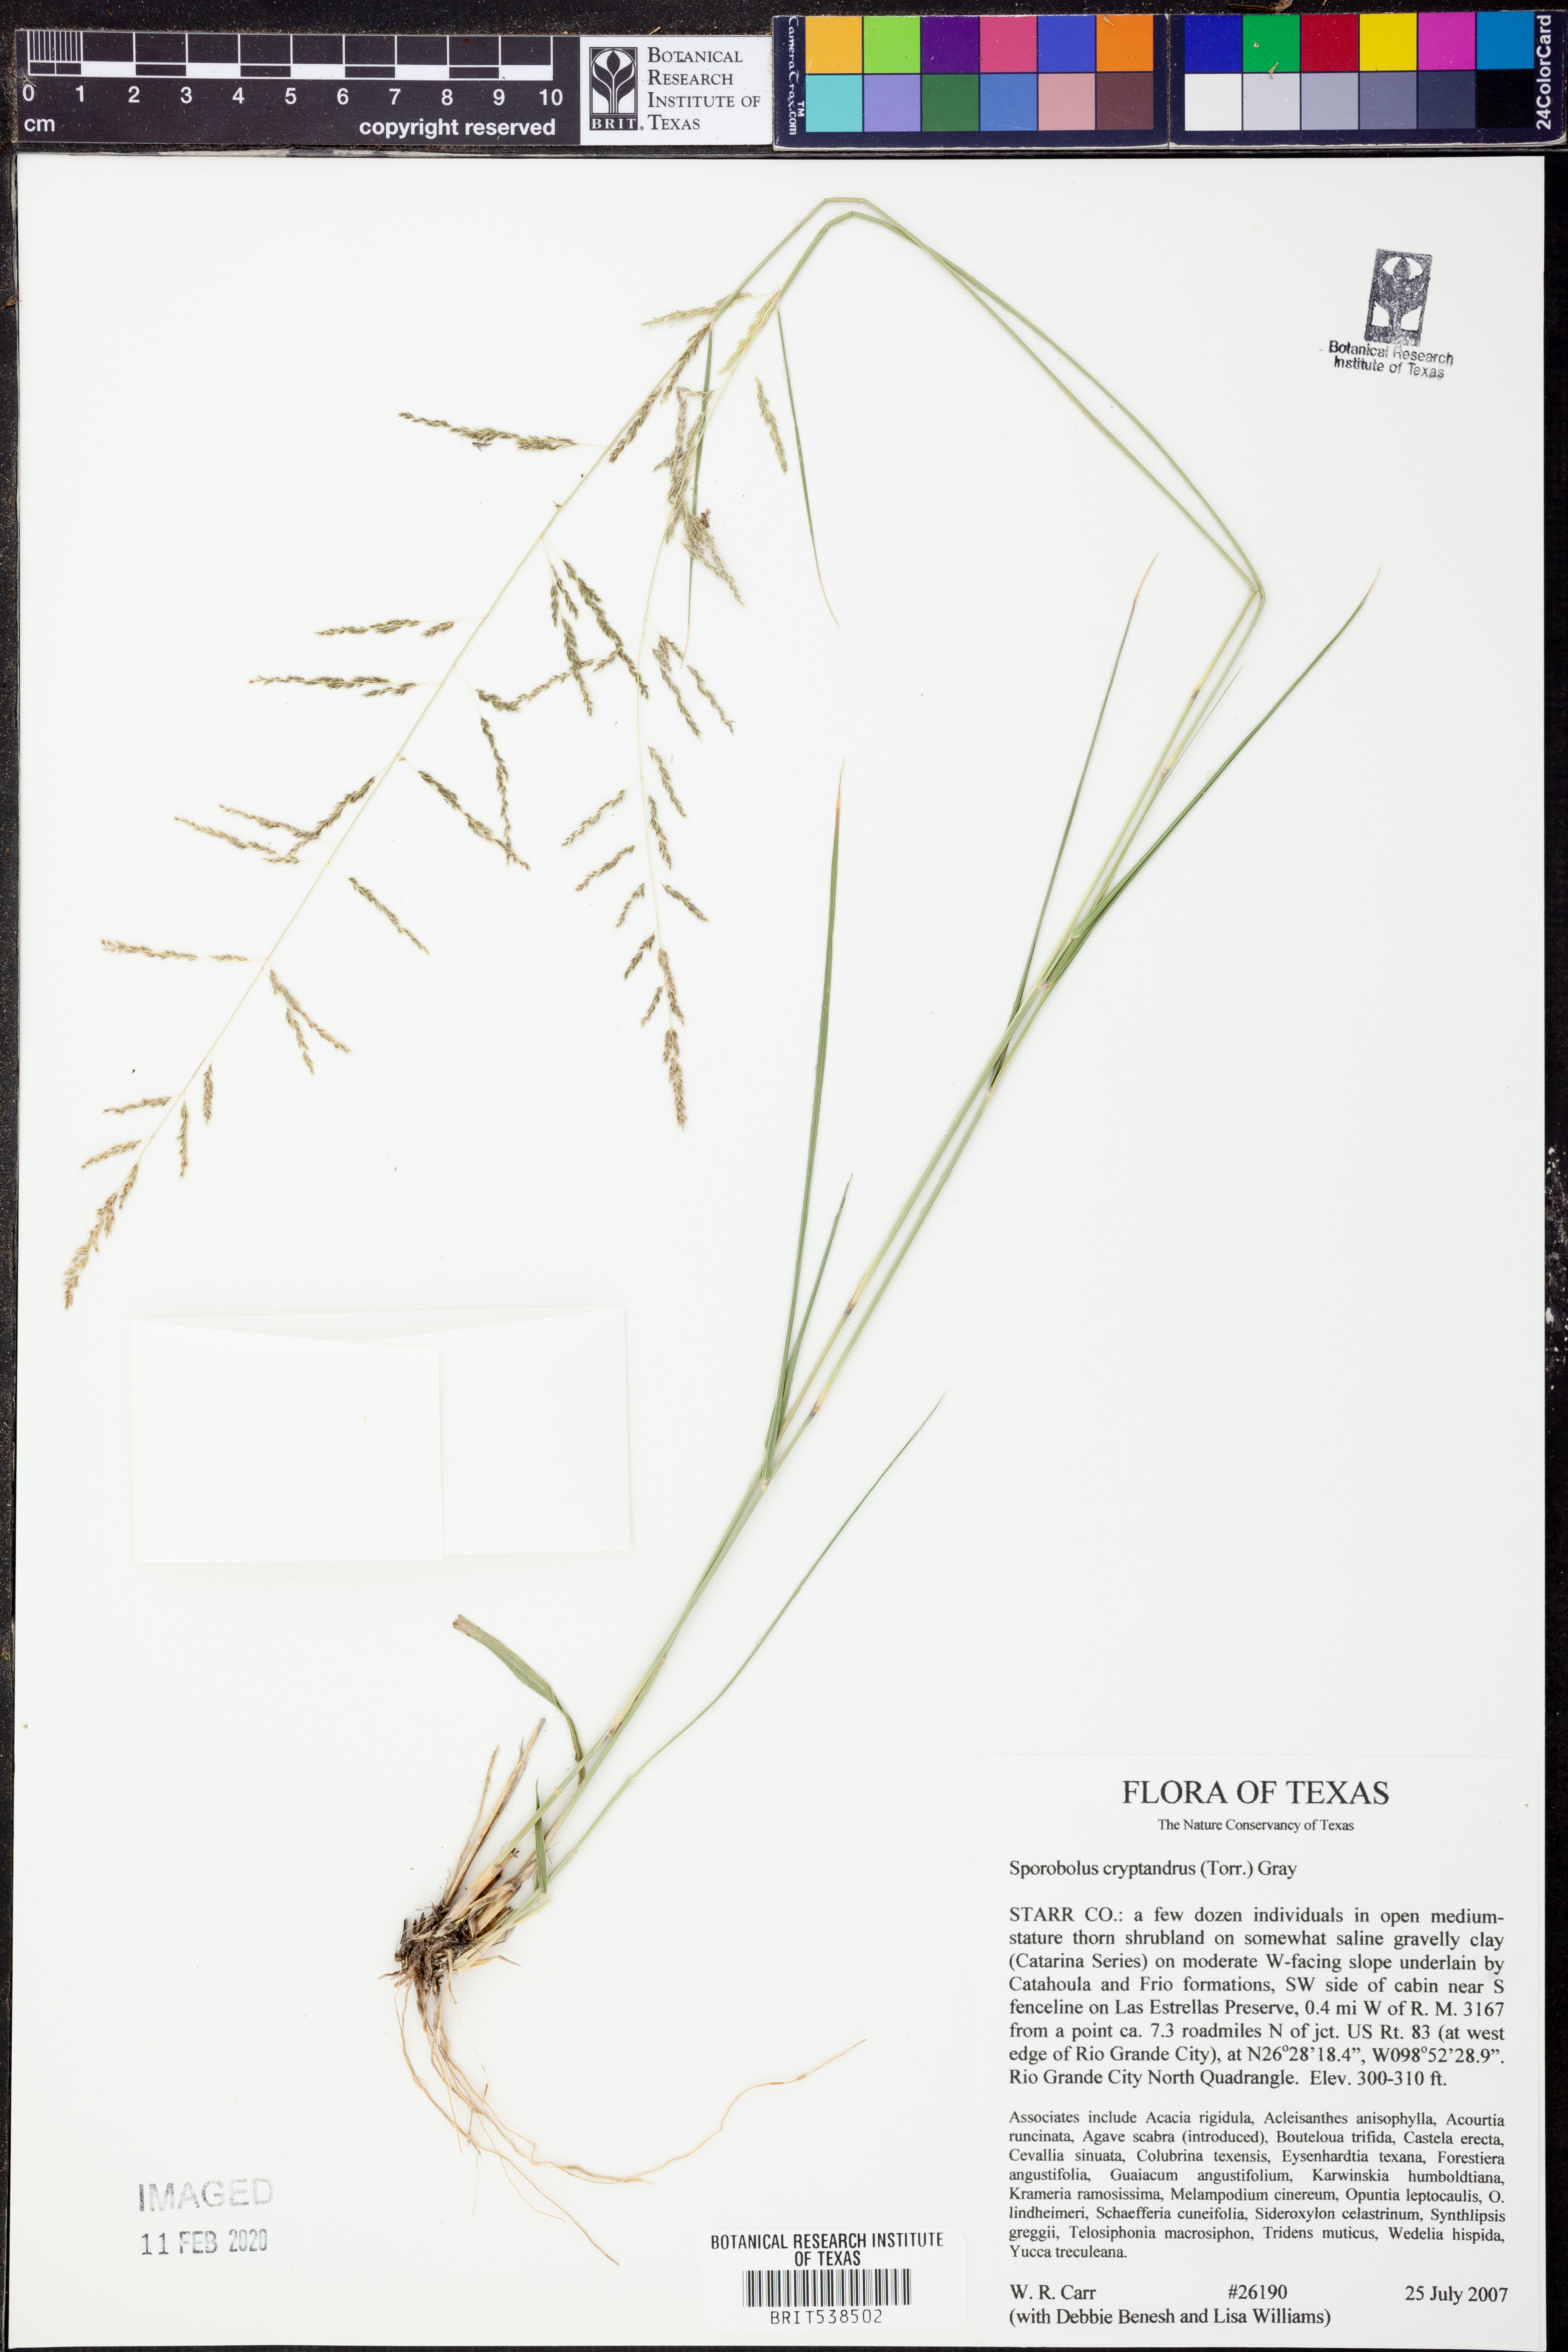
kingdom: Plantae
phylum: Tracheophyta
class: Liliopsida
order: Poales
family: Poaceae
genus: Sporobolus
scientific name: Sporobolus cryptandrus
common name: Sand dropseed
